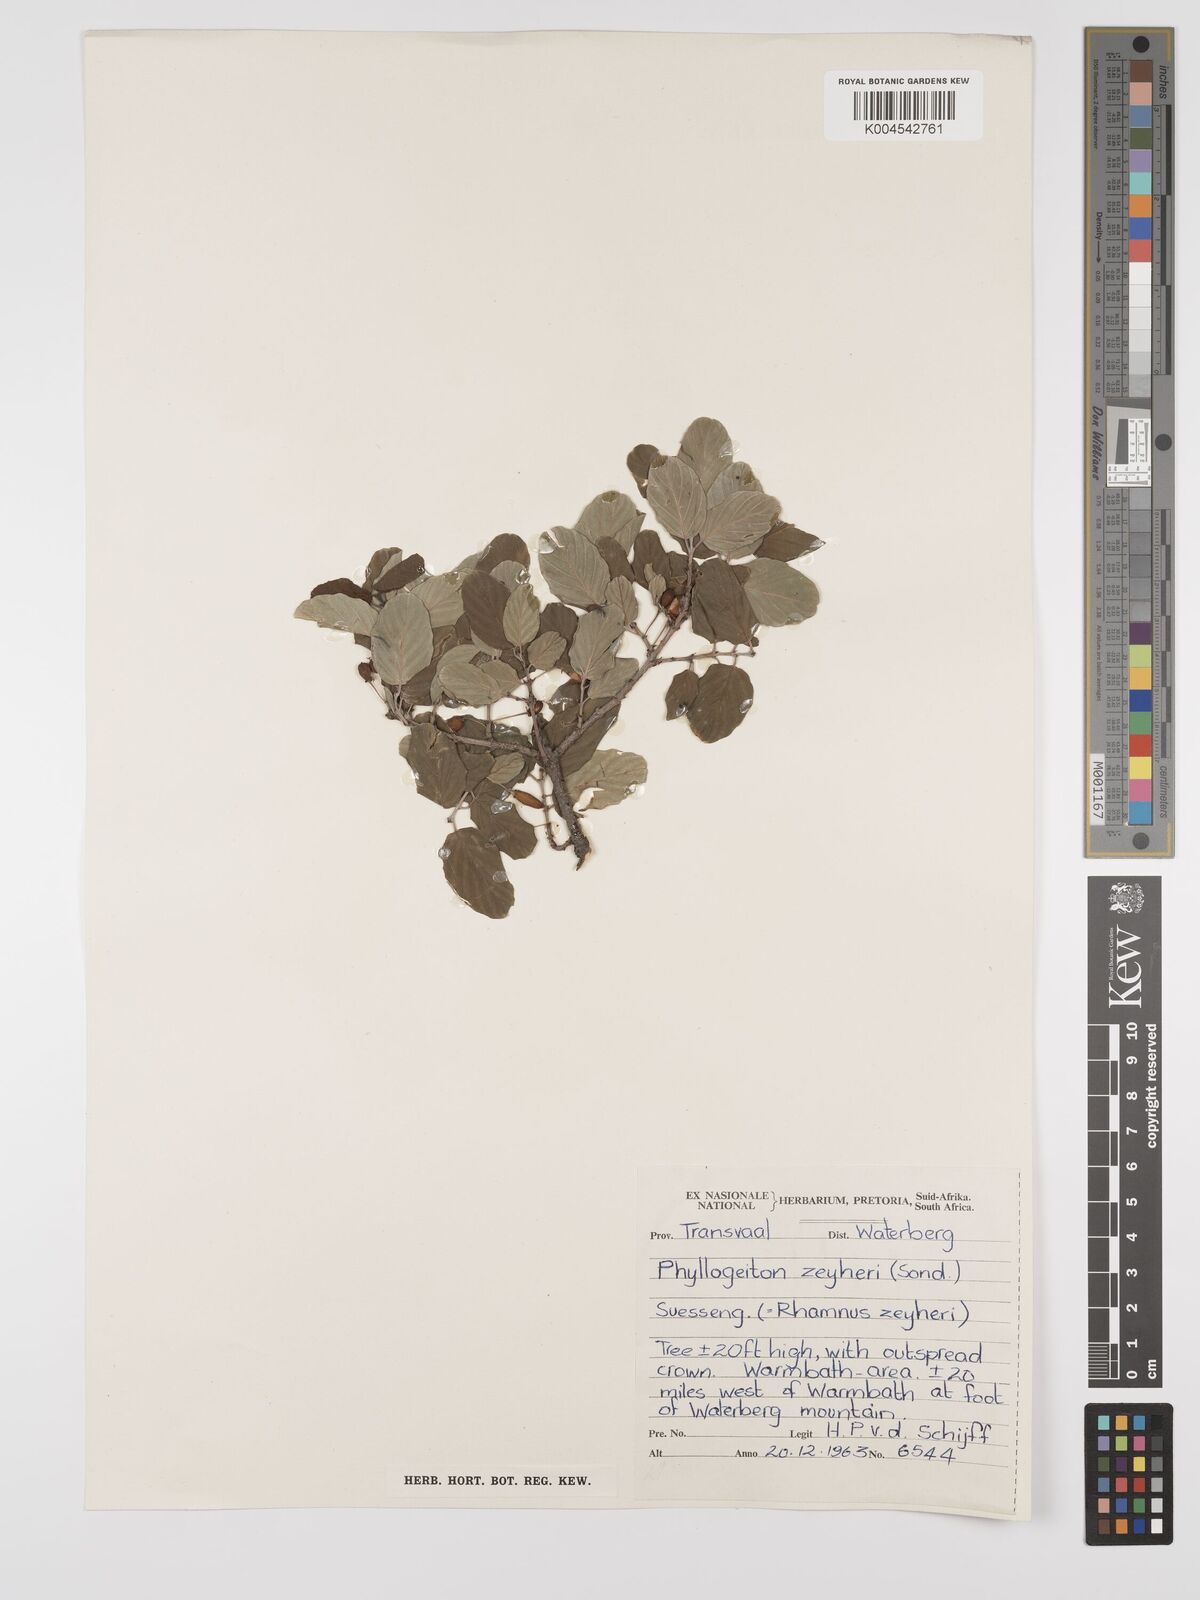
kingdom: Plantae
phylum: Tracheophyta
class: Magnoliopsida
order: Rosales
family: Rhamnaceae
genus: Phyllogeiton
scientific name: Phyllogeiton zeyheri
